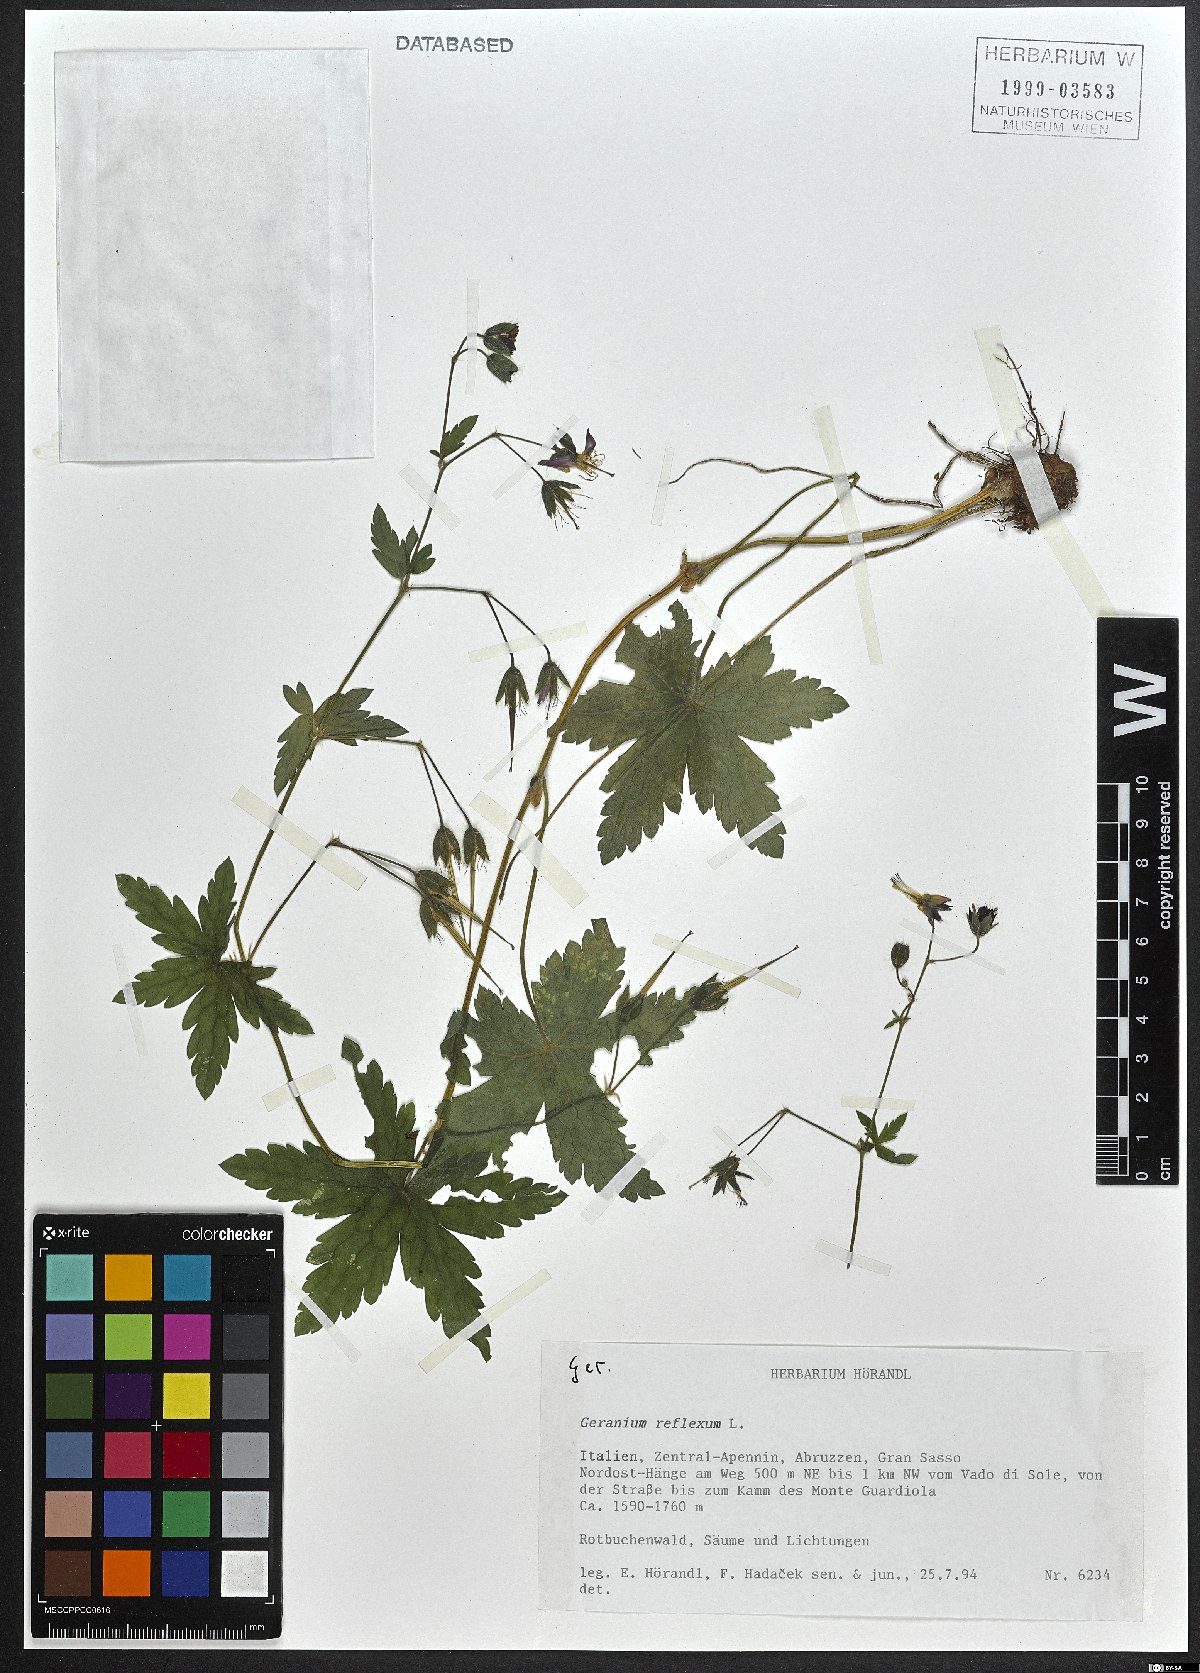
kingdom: Plantae
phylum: Tracheophyta
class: Magnoliopsida
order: Geraniales
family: Geraniaceae
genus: Geranium
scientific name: Geranium reflexum
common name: Reflexed crane's-bill
